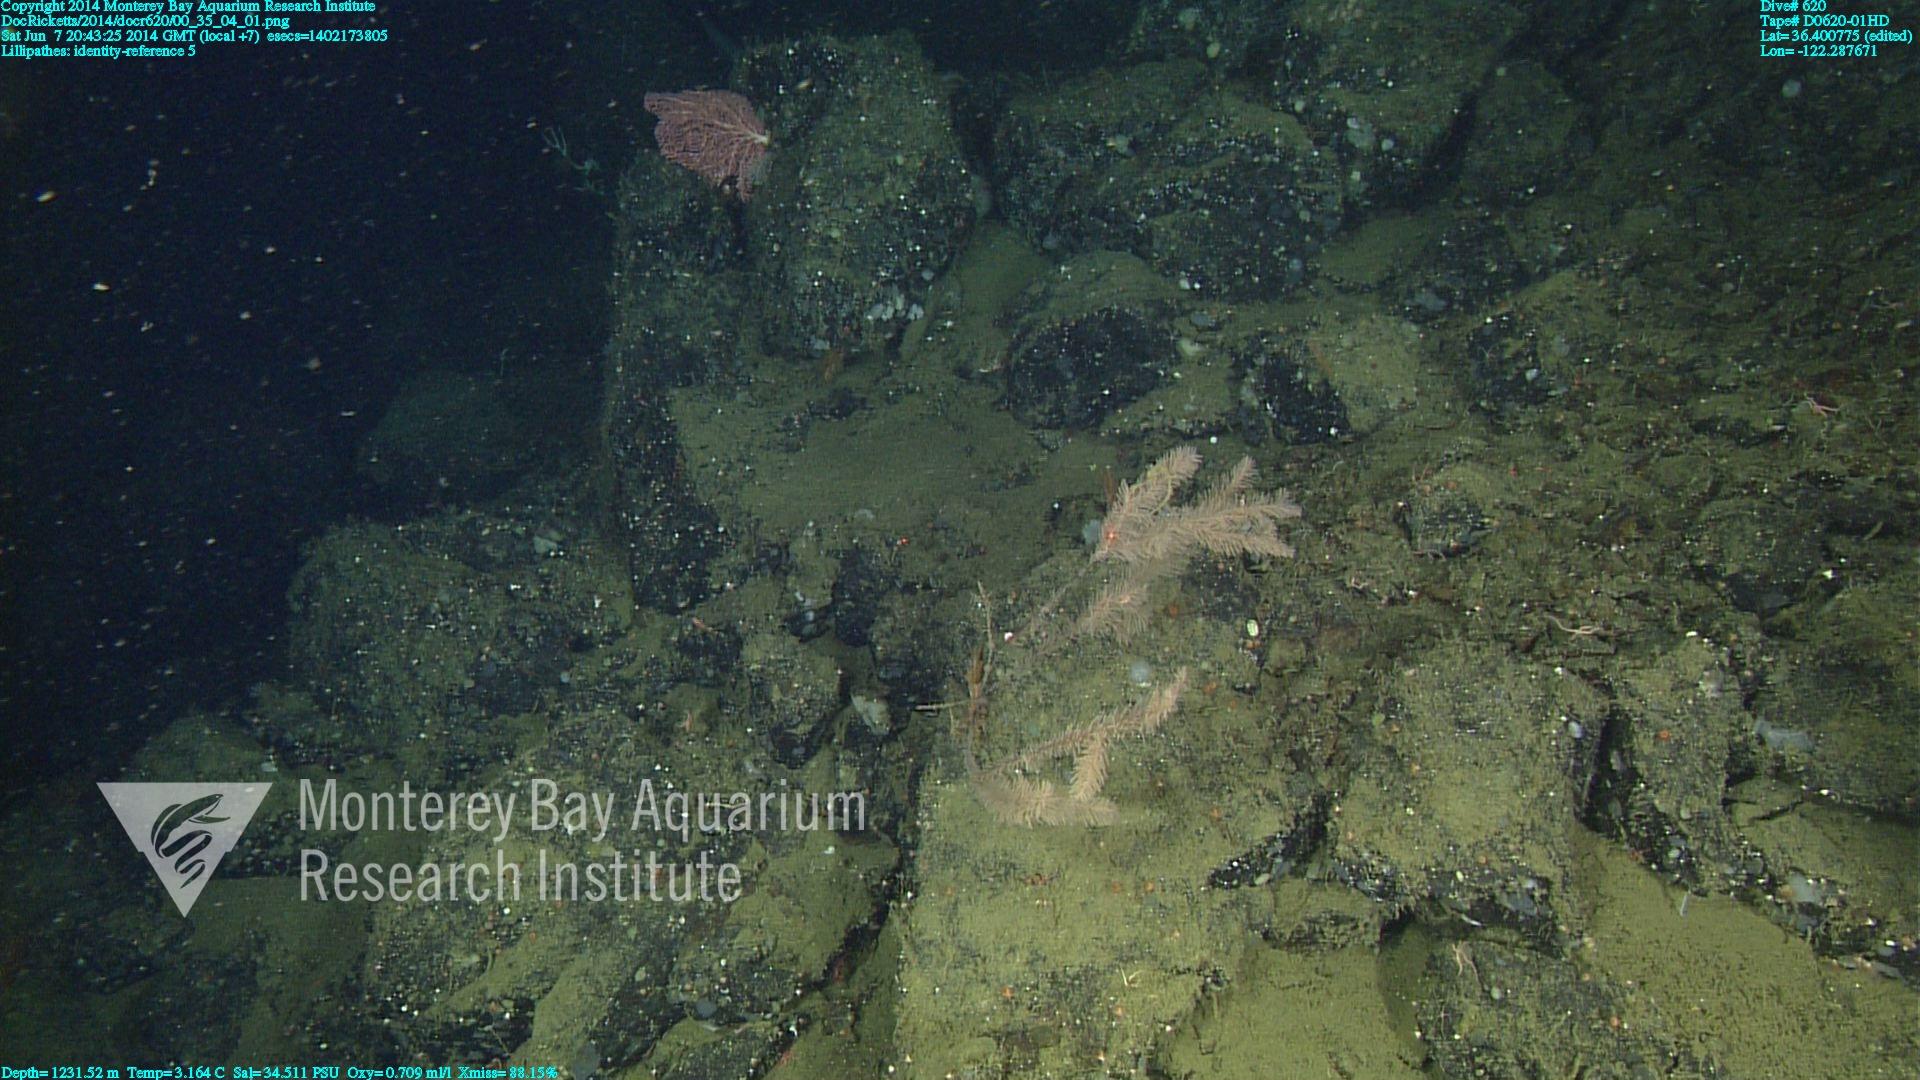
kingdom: Animalia
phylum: Cnidaria
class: Anthozoa
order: Antipatharia
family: Schizopathidae
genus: Lillipathes
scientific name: Lillipathes
